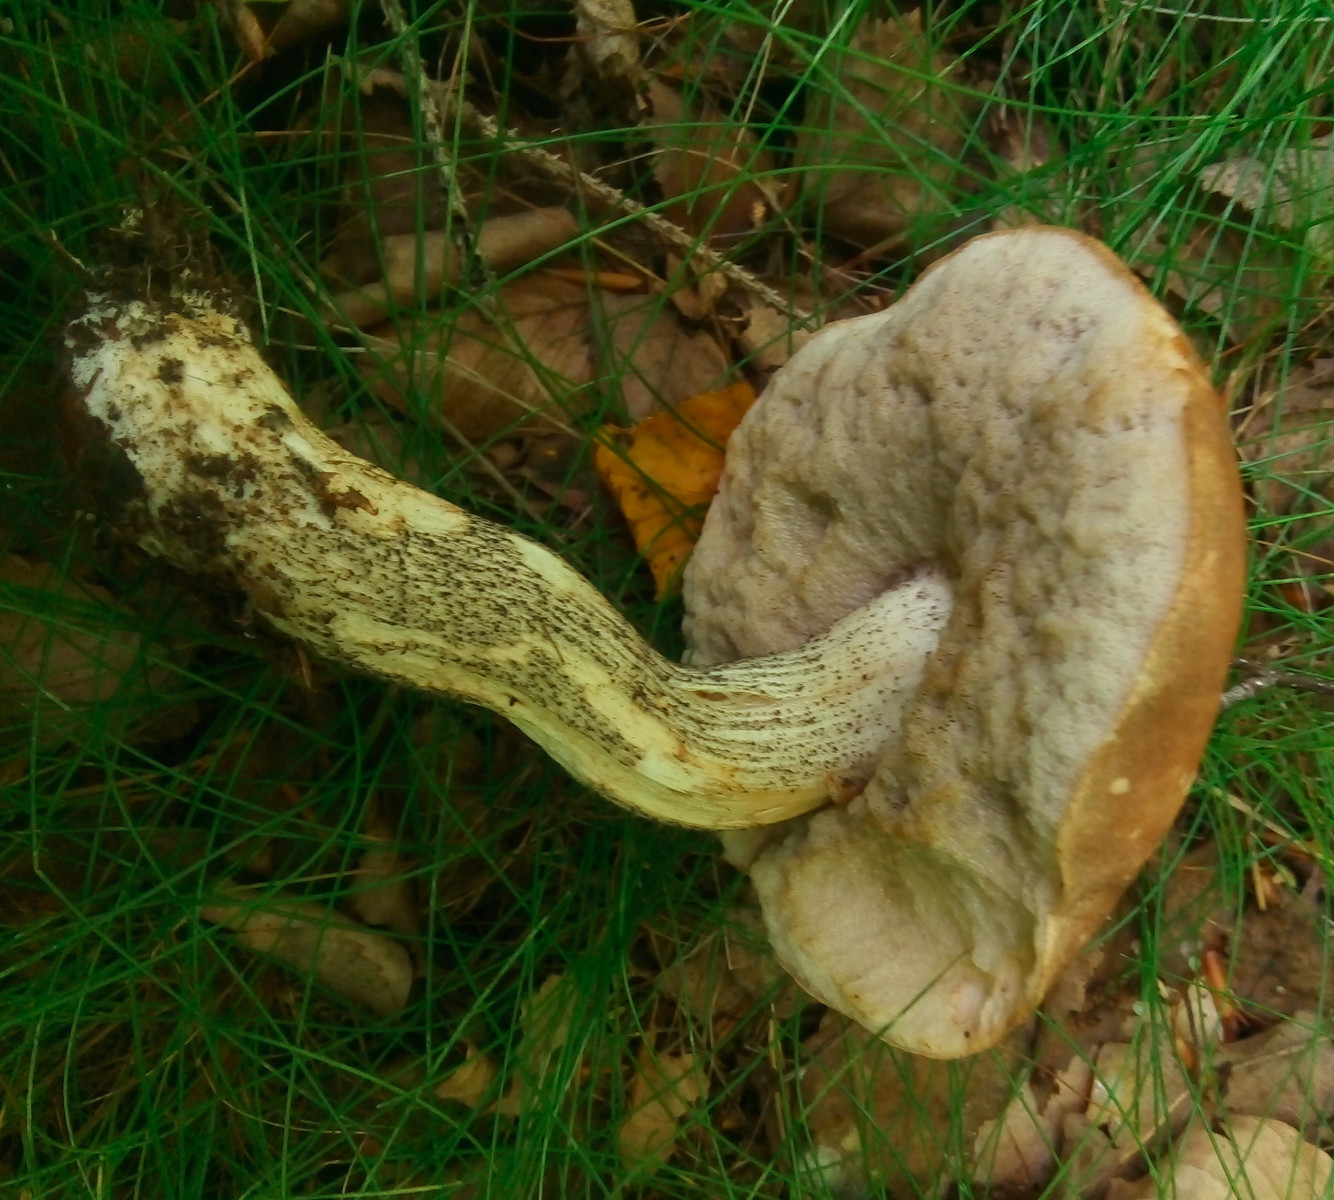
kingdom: Fungi
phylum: Basidiomycota
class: Agaricomycetes
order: Boletales
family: Boletaceae
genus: Leccinum
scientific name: Leccinum scabrum
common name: brun skælrørhat
